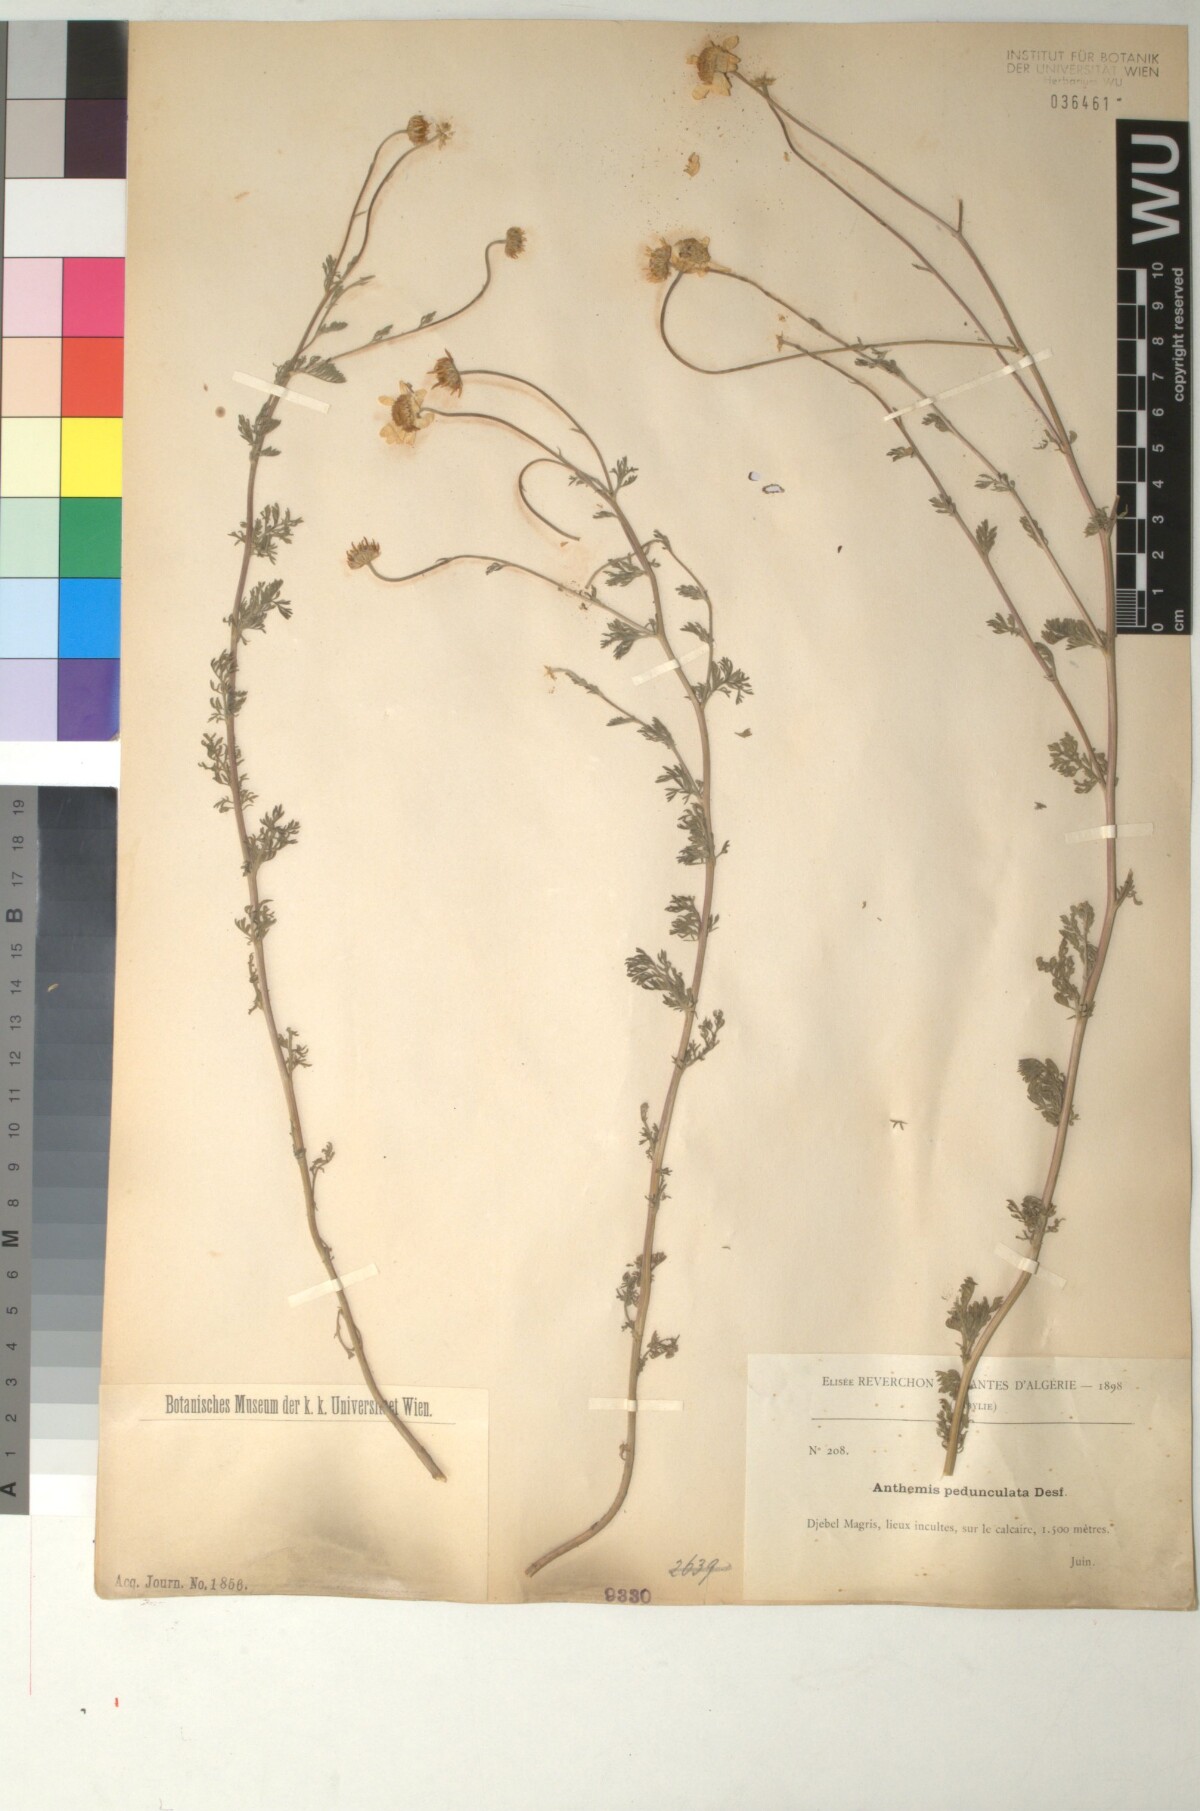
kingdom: Plantae
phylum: Tracheophyta
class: Magnoliopsida
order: Asterales
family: Asteraceae
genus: Anthemis
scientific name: Anthemis pedunculata
